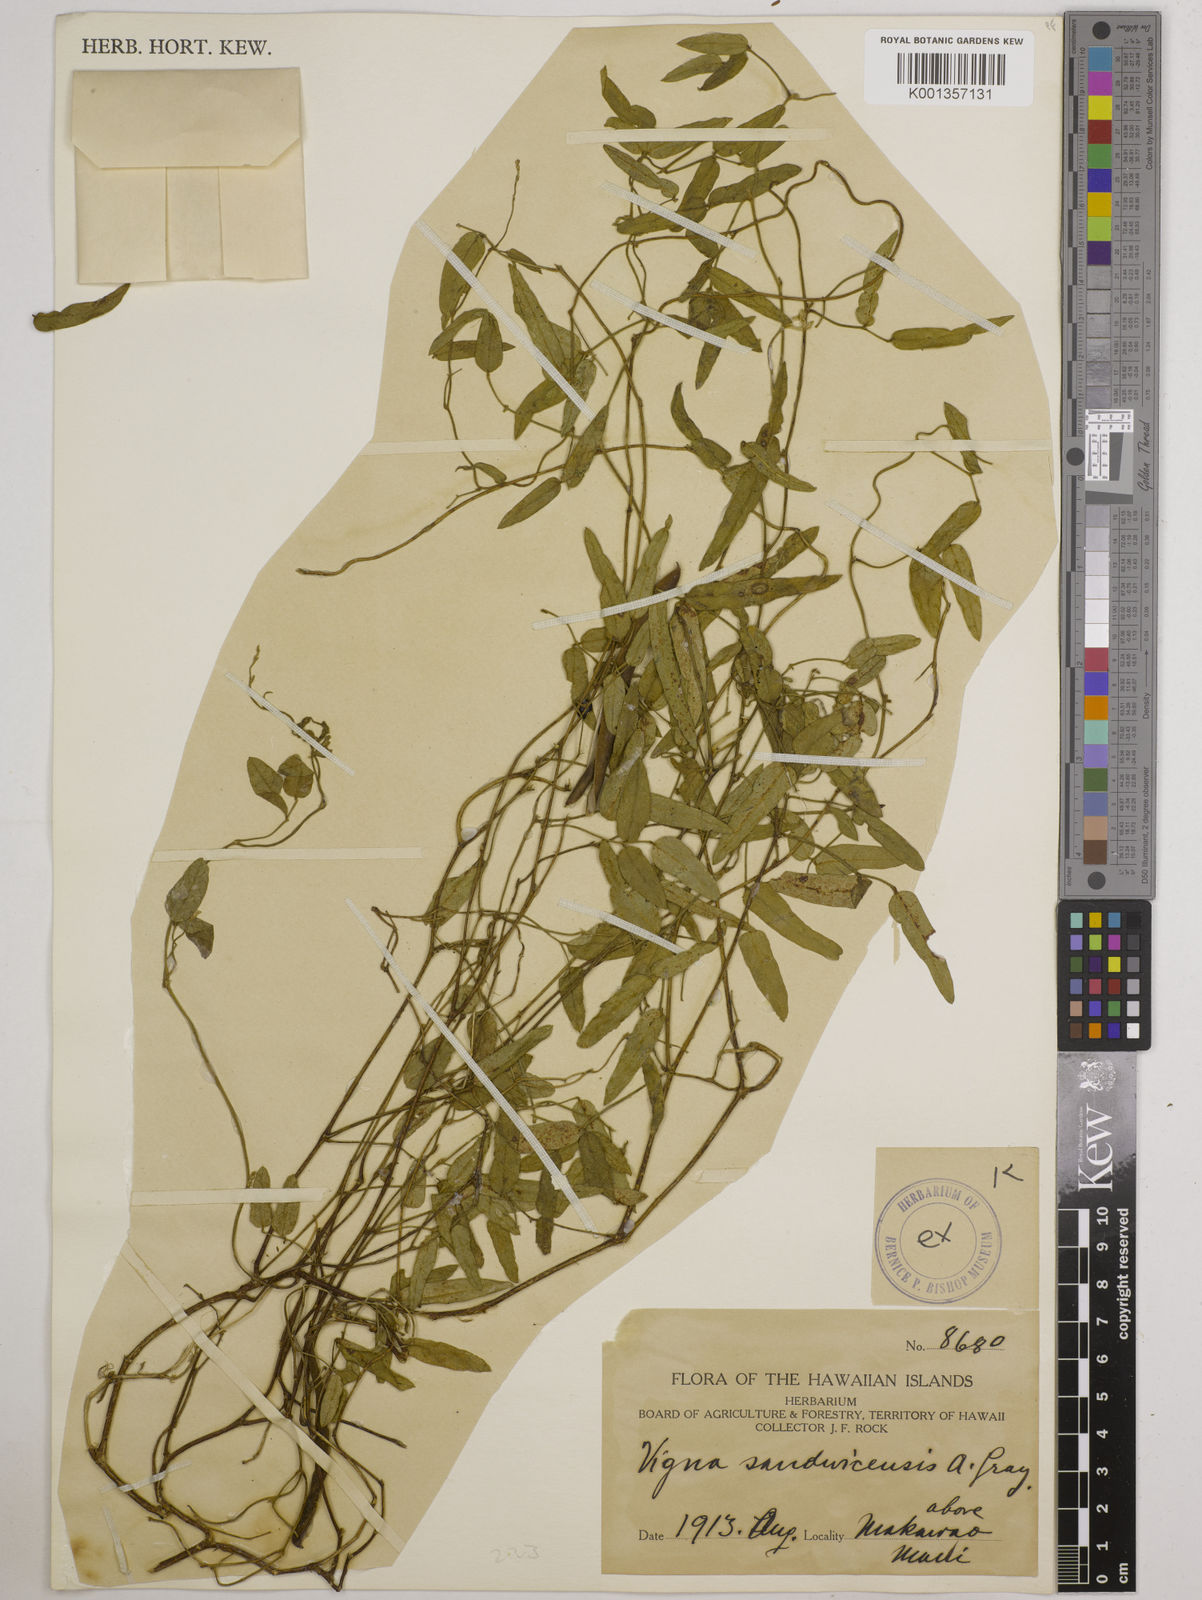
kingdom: Plantae
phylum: Tracheophyta
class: Magnoliopsida
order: Fabales
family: Fabaceae
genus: Vigna
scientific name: Vigna
